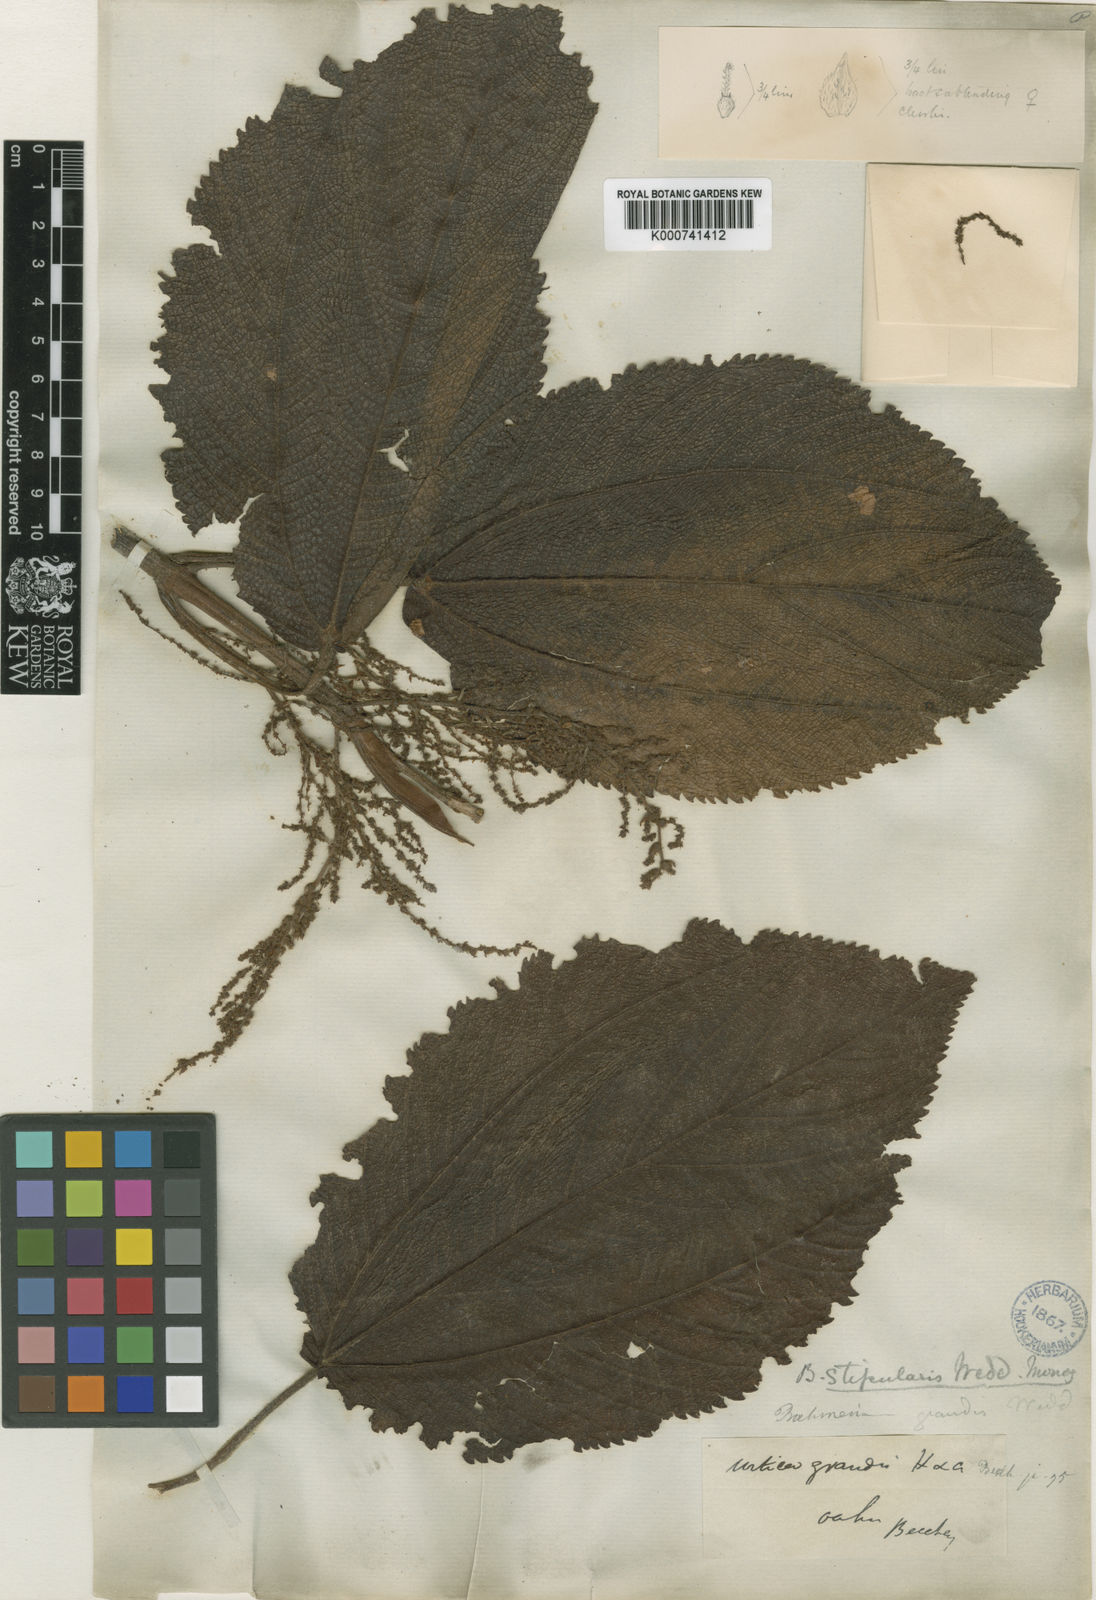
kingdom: Plantae
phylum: Tracheophyta
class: Magnoliopsida
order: Rosales
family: Urticaceae
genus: Boehmeria
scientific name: Boehmeria grandis
